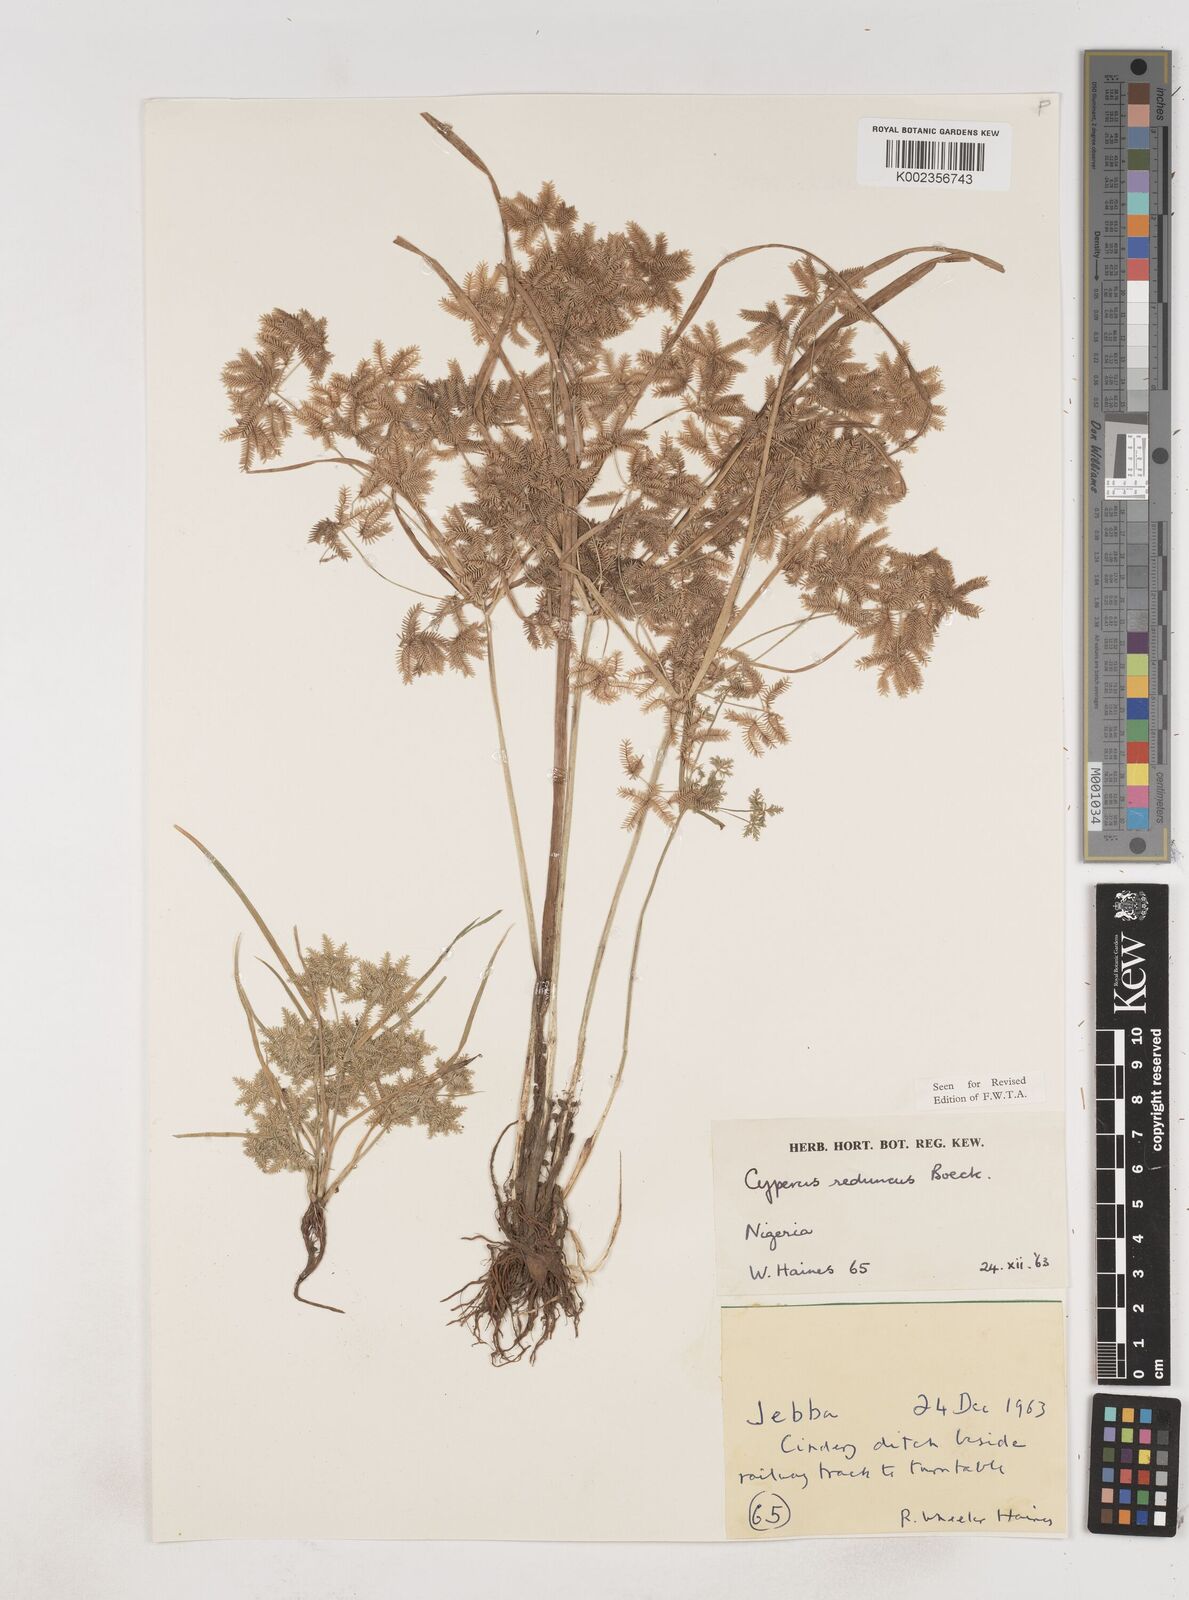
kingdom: Plantae
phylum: Tracheophyta
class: Liliopsida
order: Poales
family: Cyperaceae
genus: Cyperus
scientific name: Cyperus reduncus
